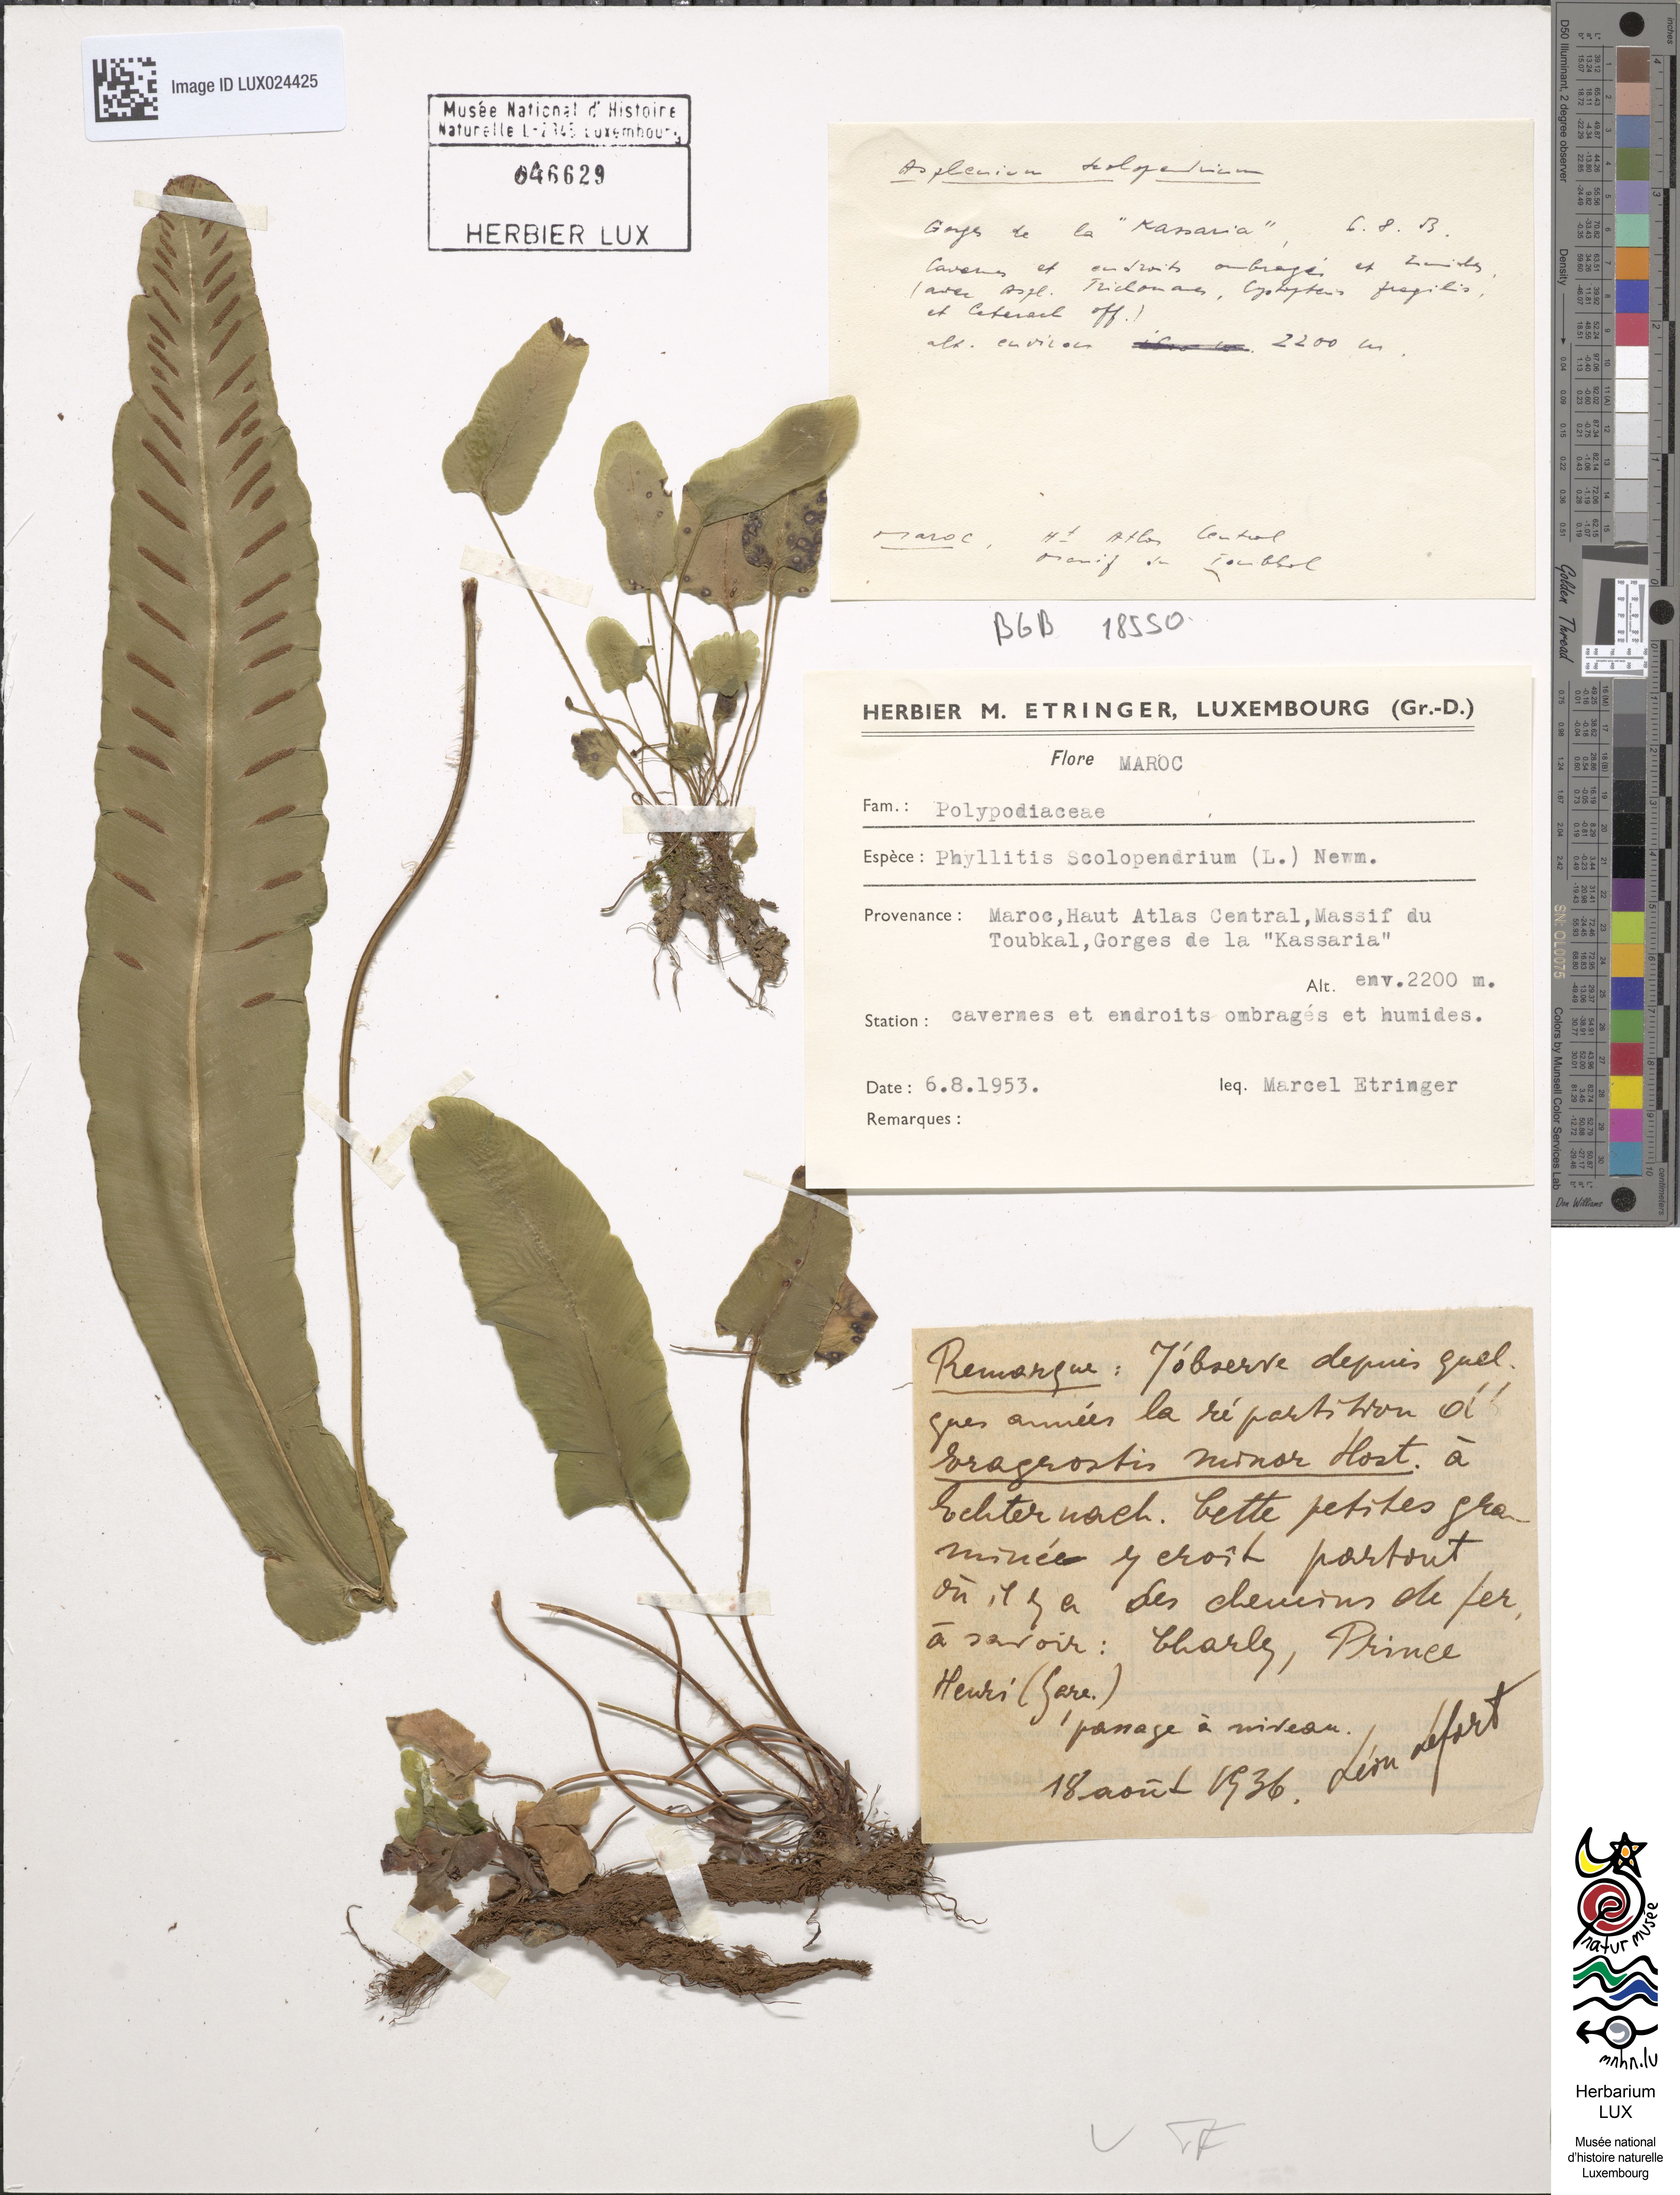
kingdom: Plantae
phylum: Tracheophyta
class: Polypodiopsida
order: Polypodiales
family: Aspleniaceae
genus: Asplenium
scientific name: Asplenium scolopendrium
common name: Hart's-tongue fern
